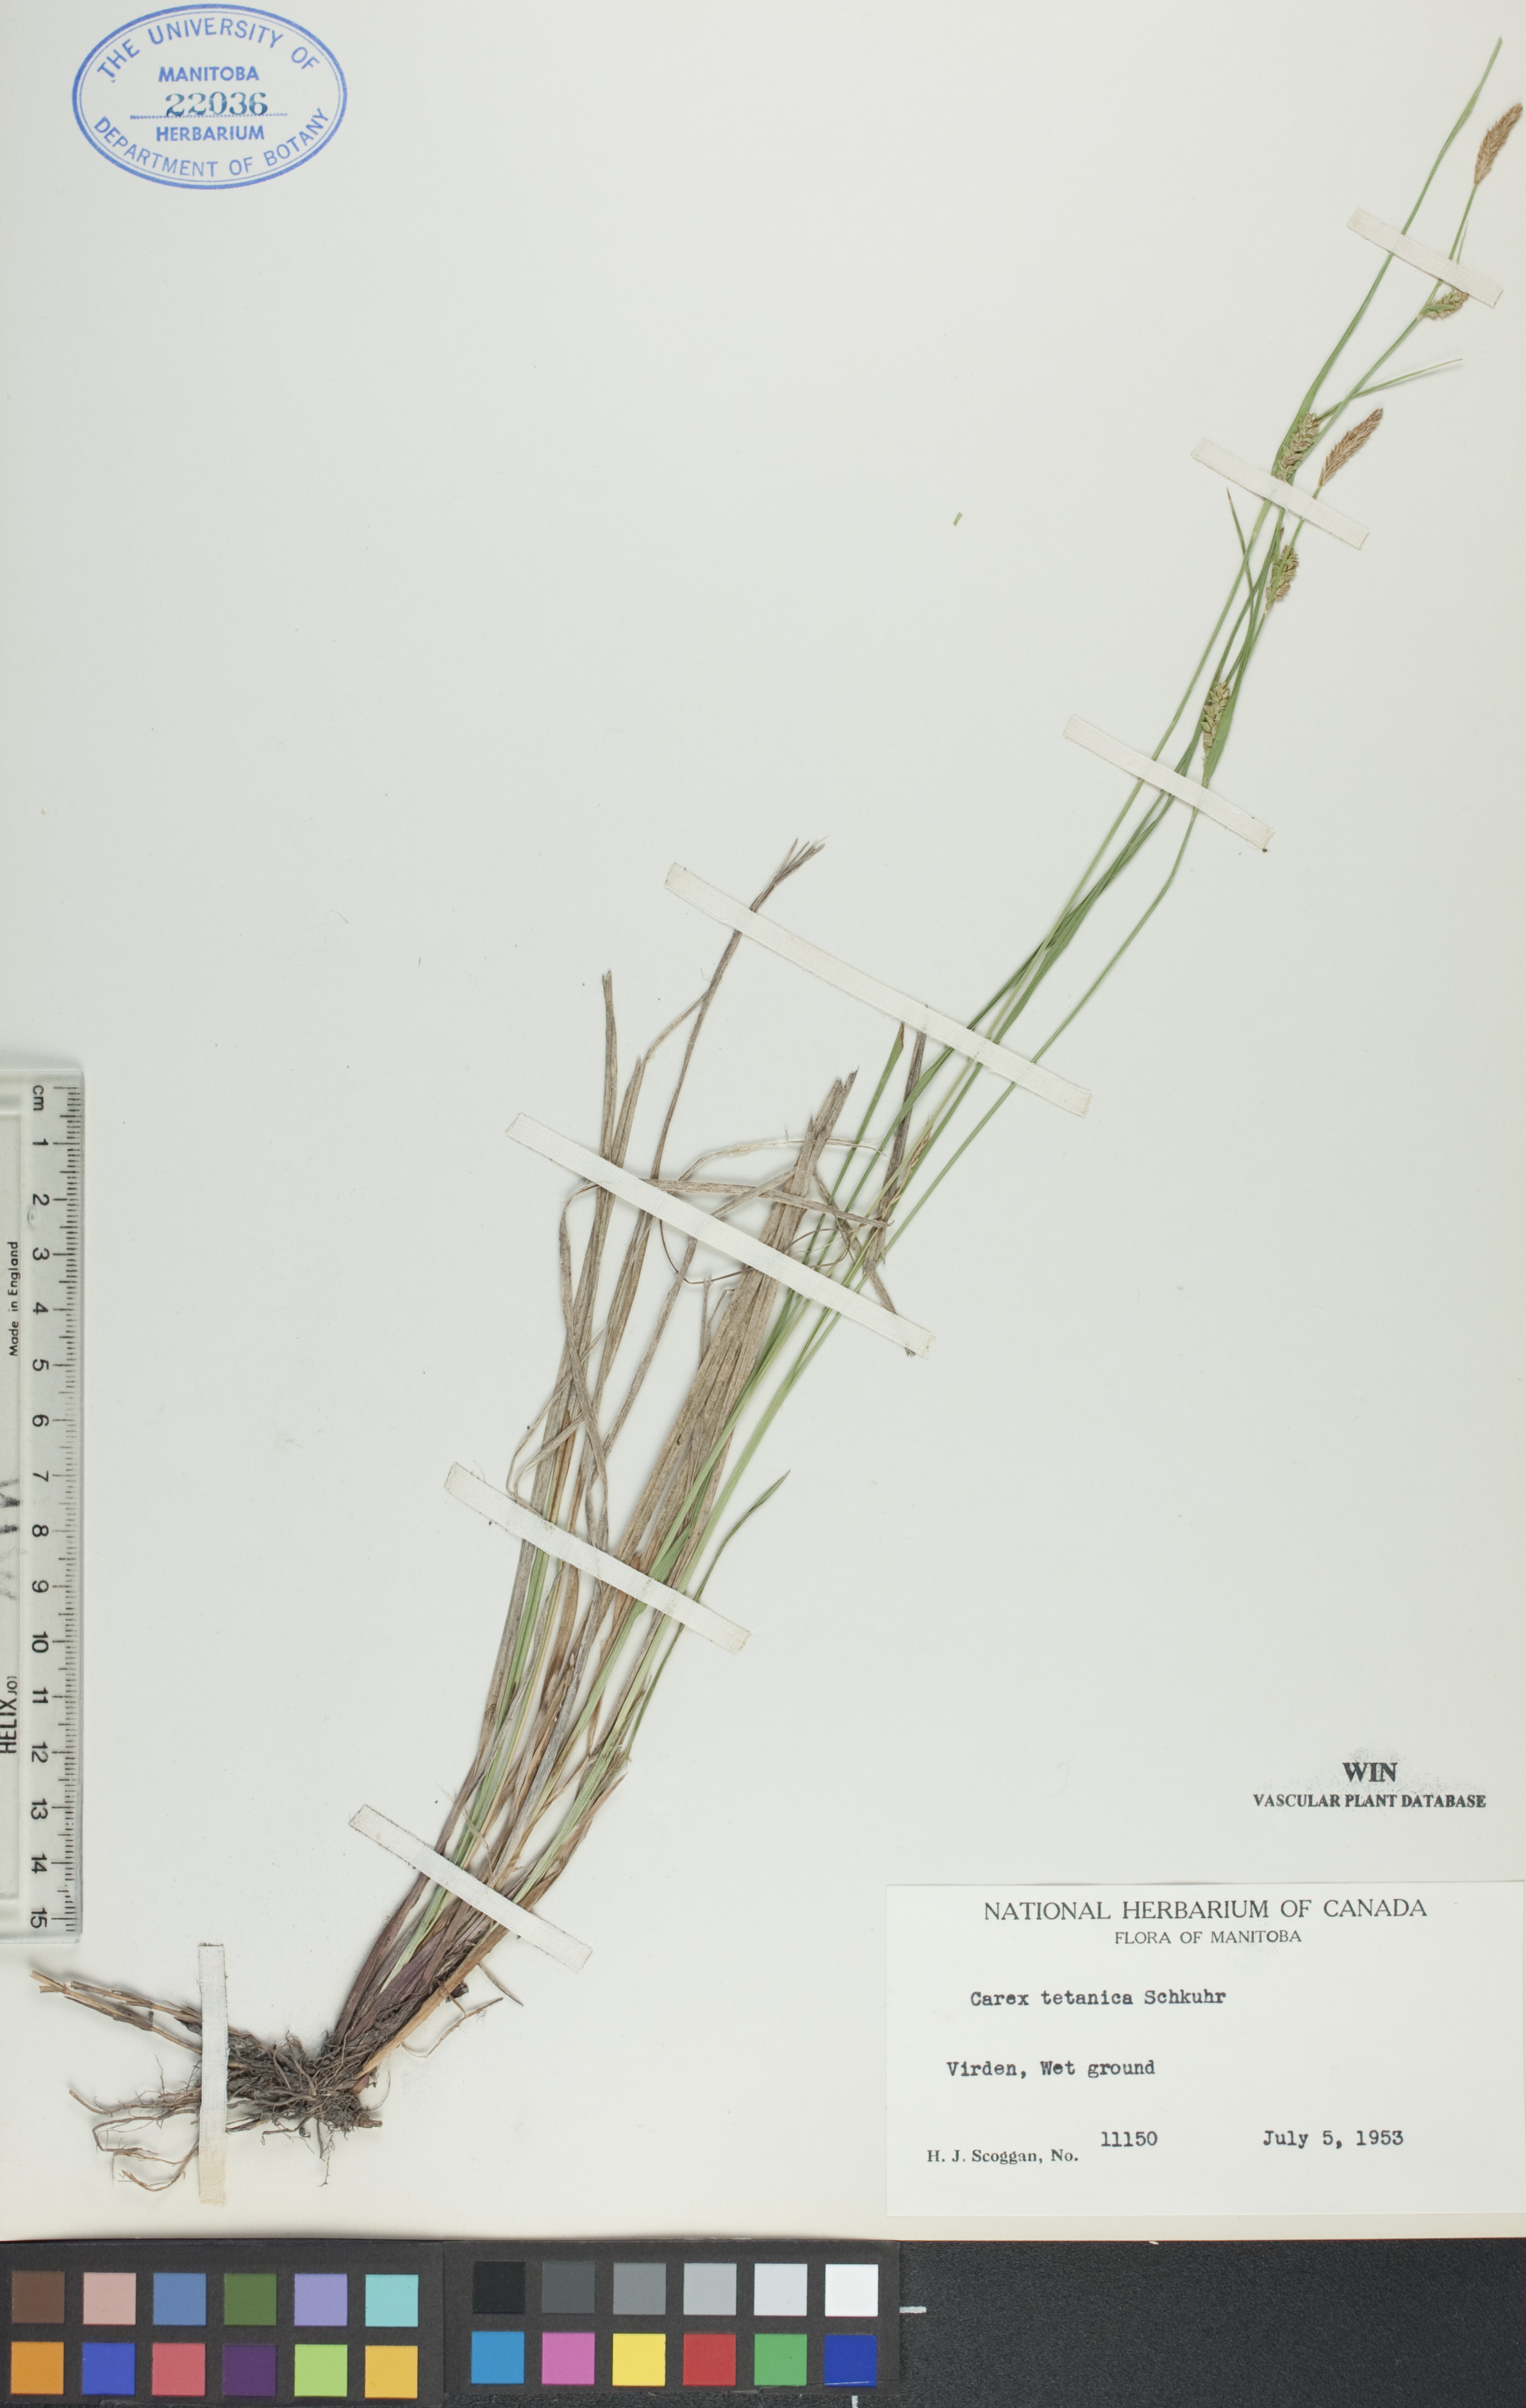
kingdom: Plantae
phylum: Tracheophyta
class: Liliopsida
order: Poales
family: Cyperaceae
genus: Carex
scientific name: Carex tetanica
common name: Rigid sedge
